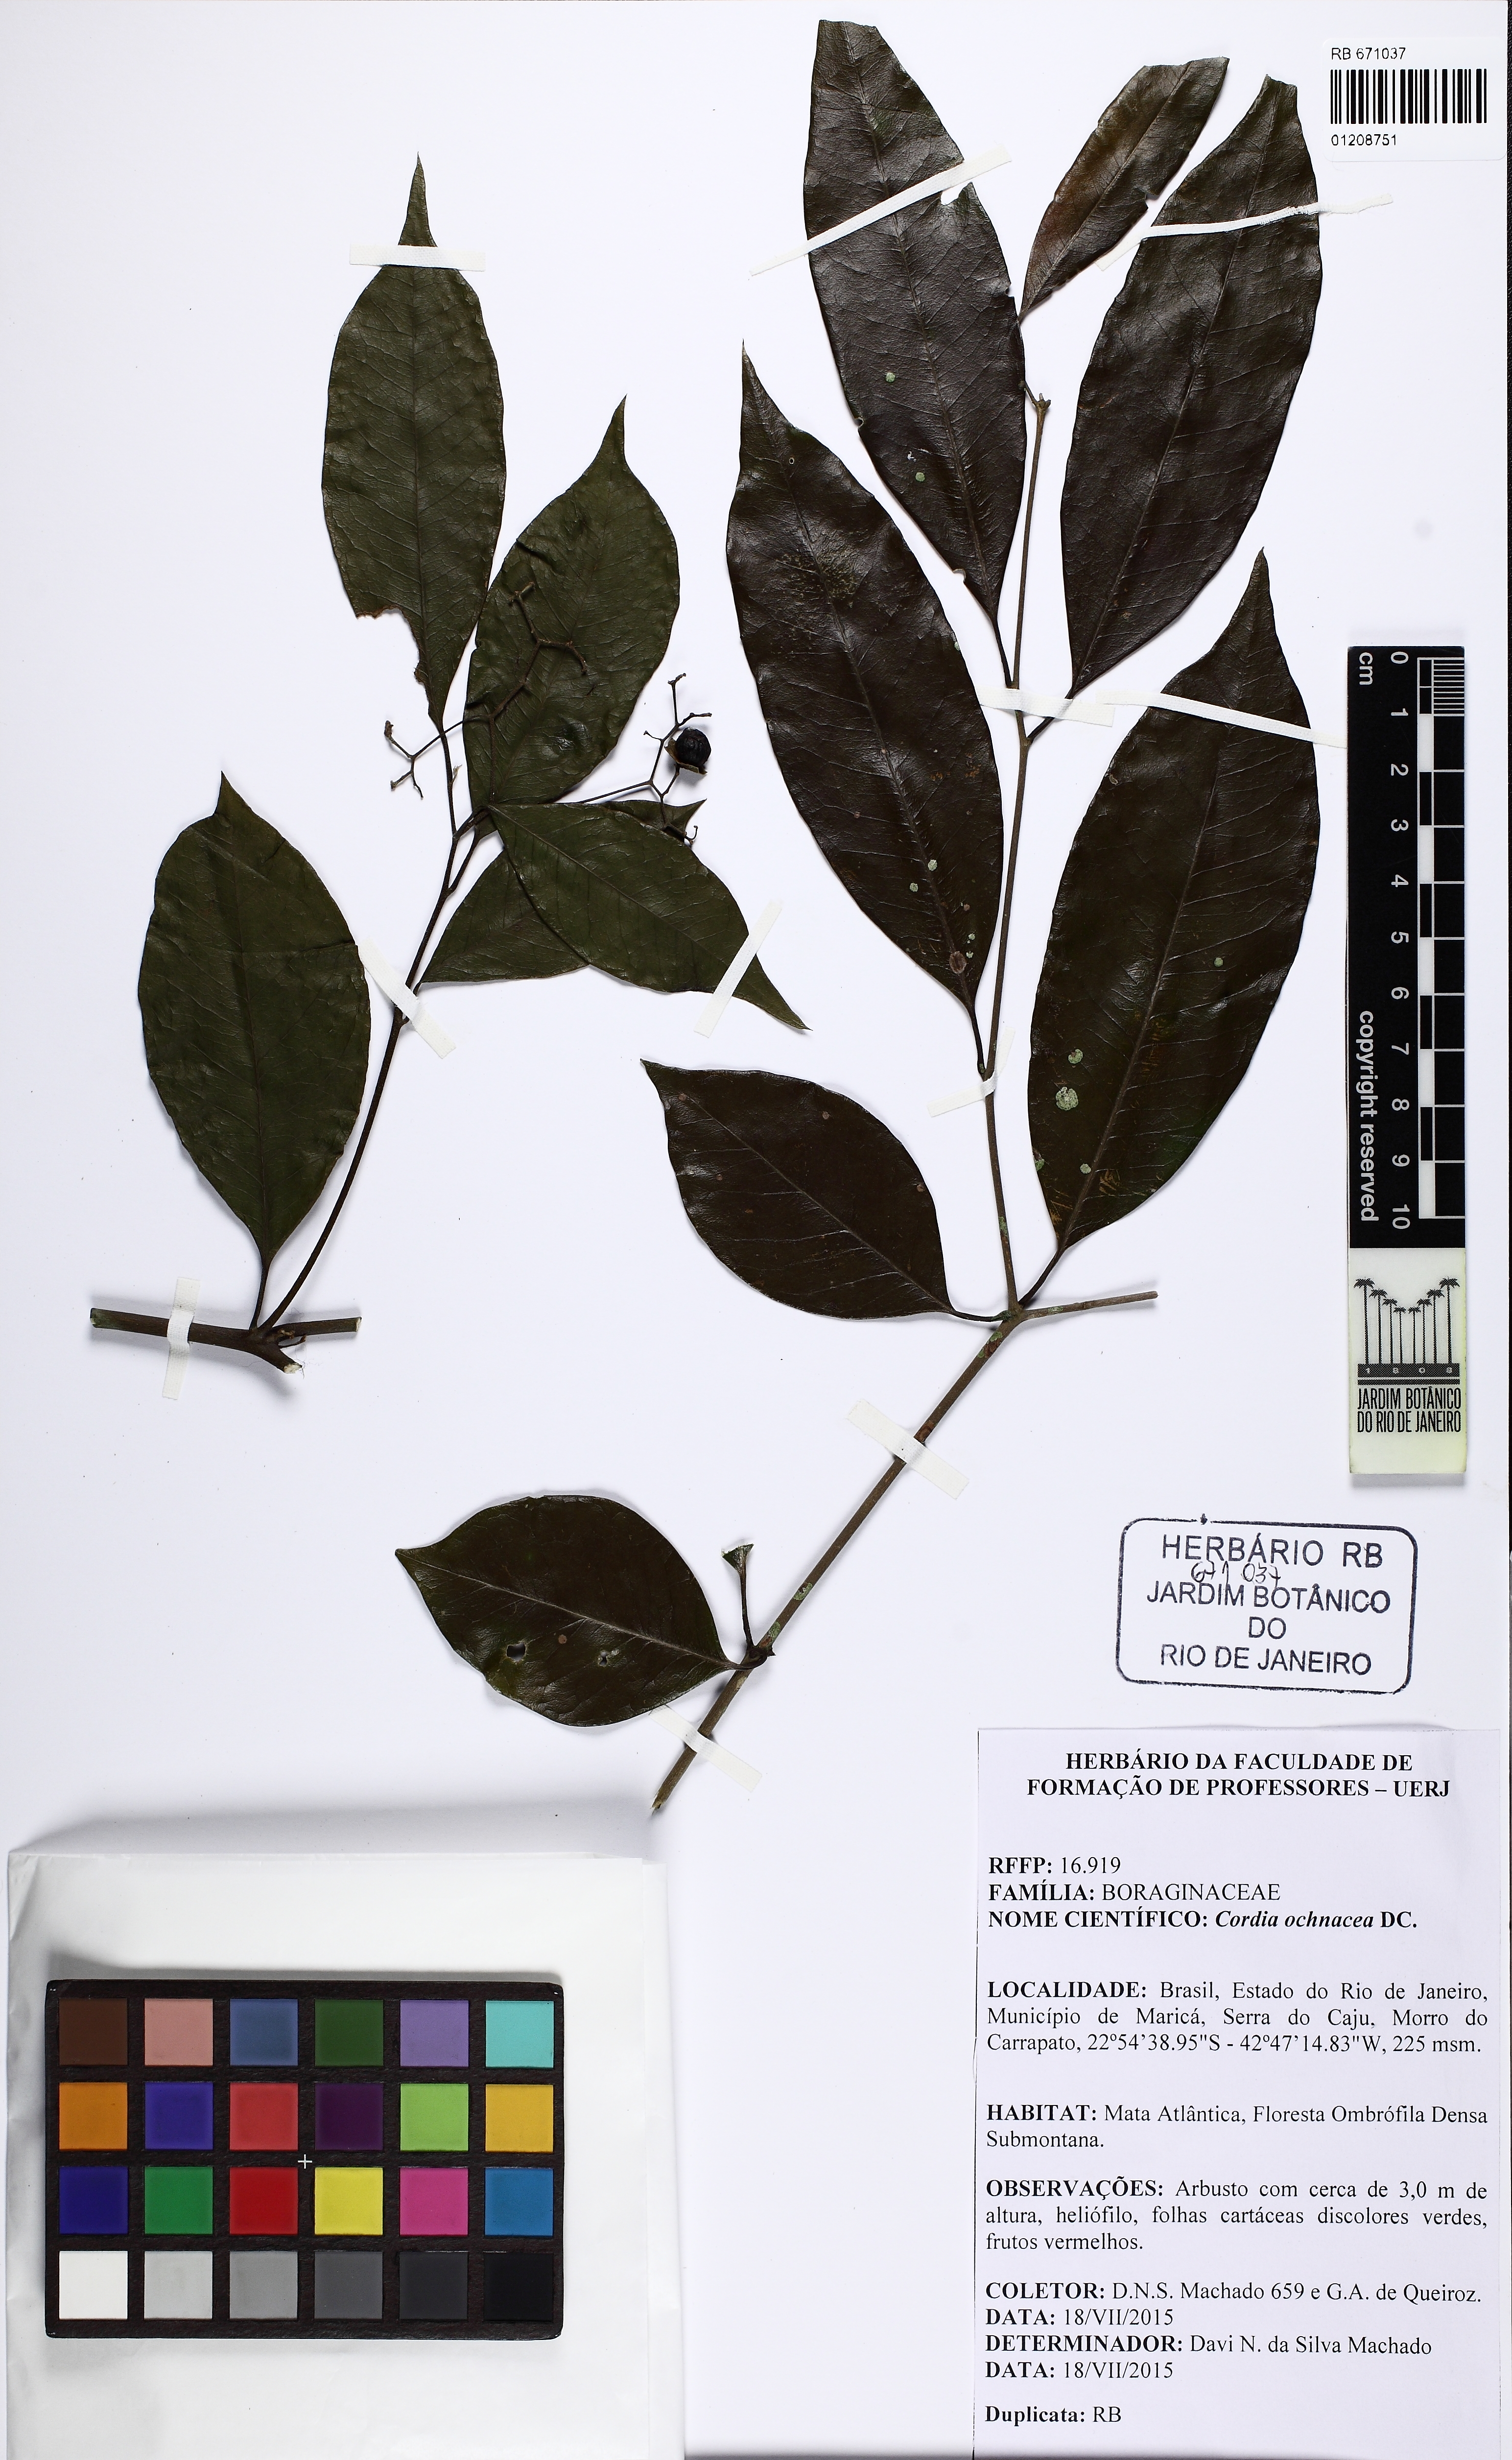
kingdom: Plantae
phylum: Tracheophyta
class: Magnoliopsida
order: Boraginales
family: Cordiaceae
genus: Cordia
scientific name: Cordia ochnacea
